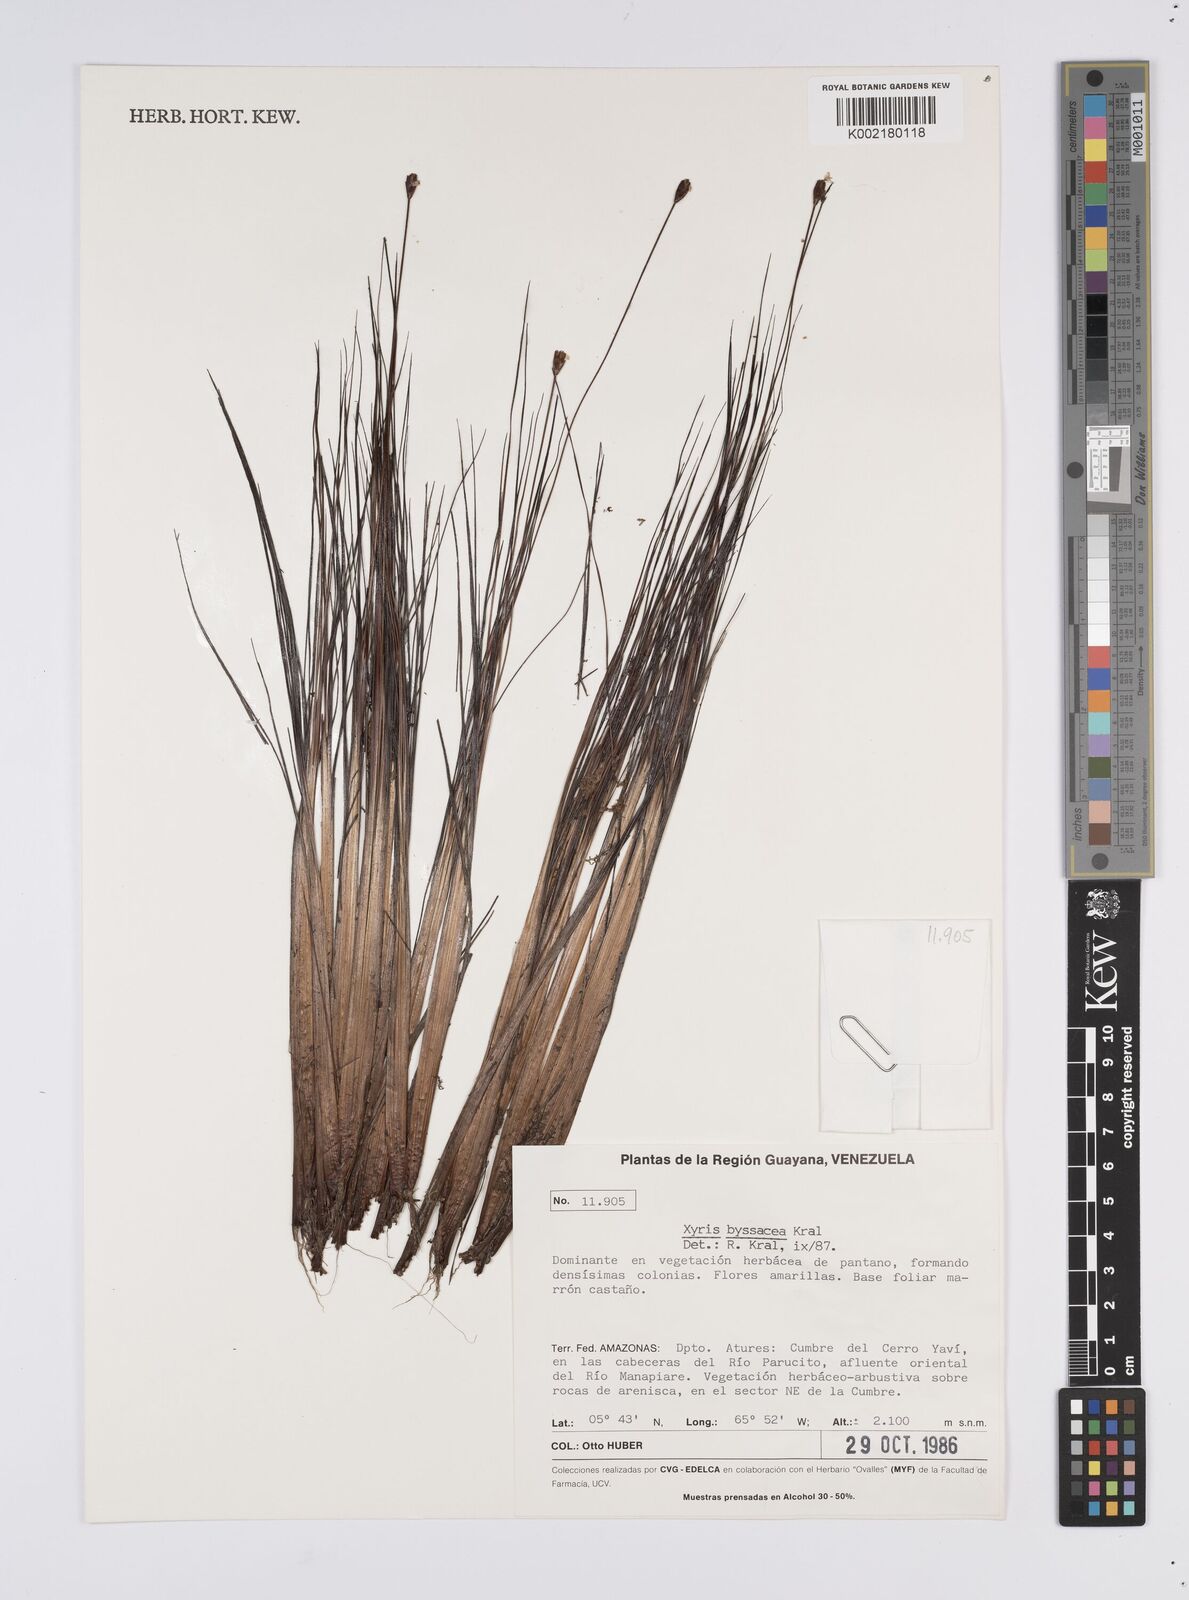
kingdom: Plantae
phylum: Tracheophyta
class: Liliopsida
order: Poales
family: Xyridaceae
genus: Xyris
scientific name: Xyris byssacea
